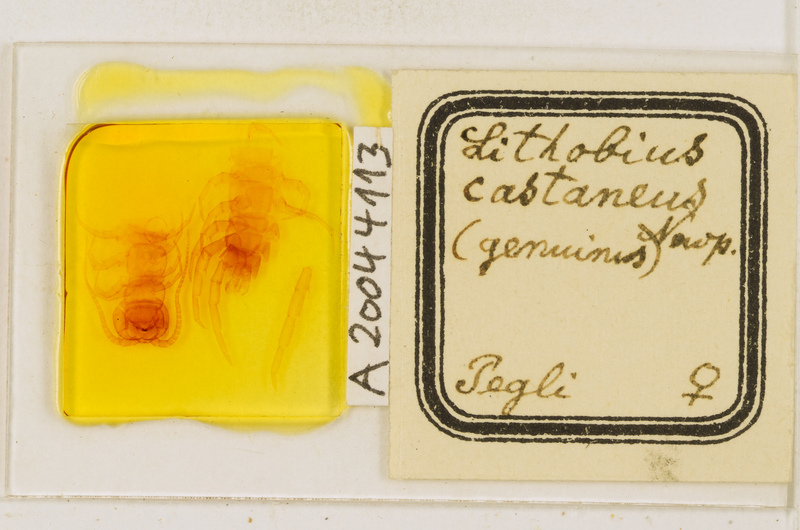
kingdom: Animalia
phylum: Arthropoda
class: Chilopoda
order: Lithobiomorpha
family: Lithobiidae
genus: Lithobius
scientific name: Lithobius castaneus
